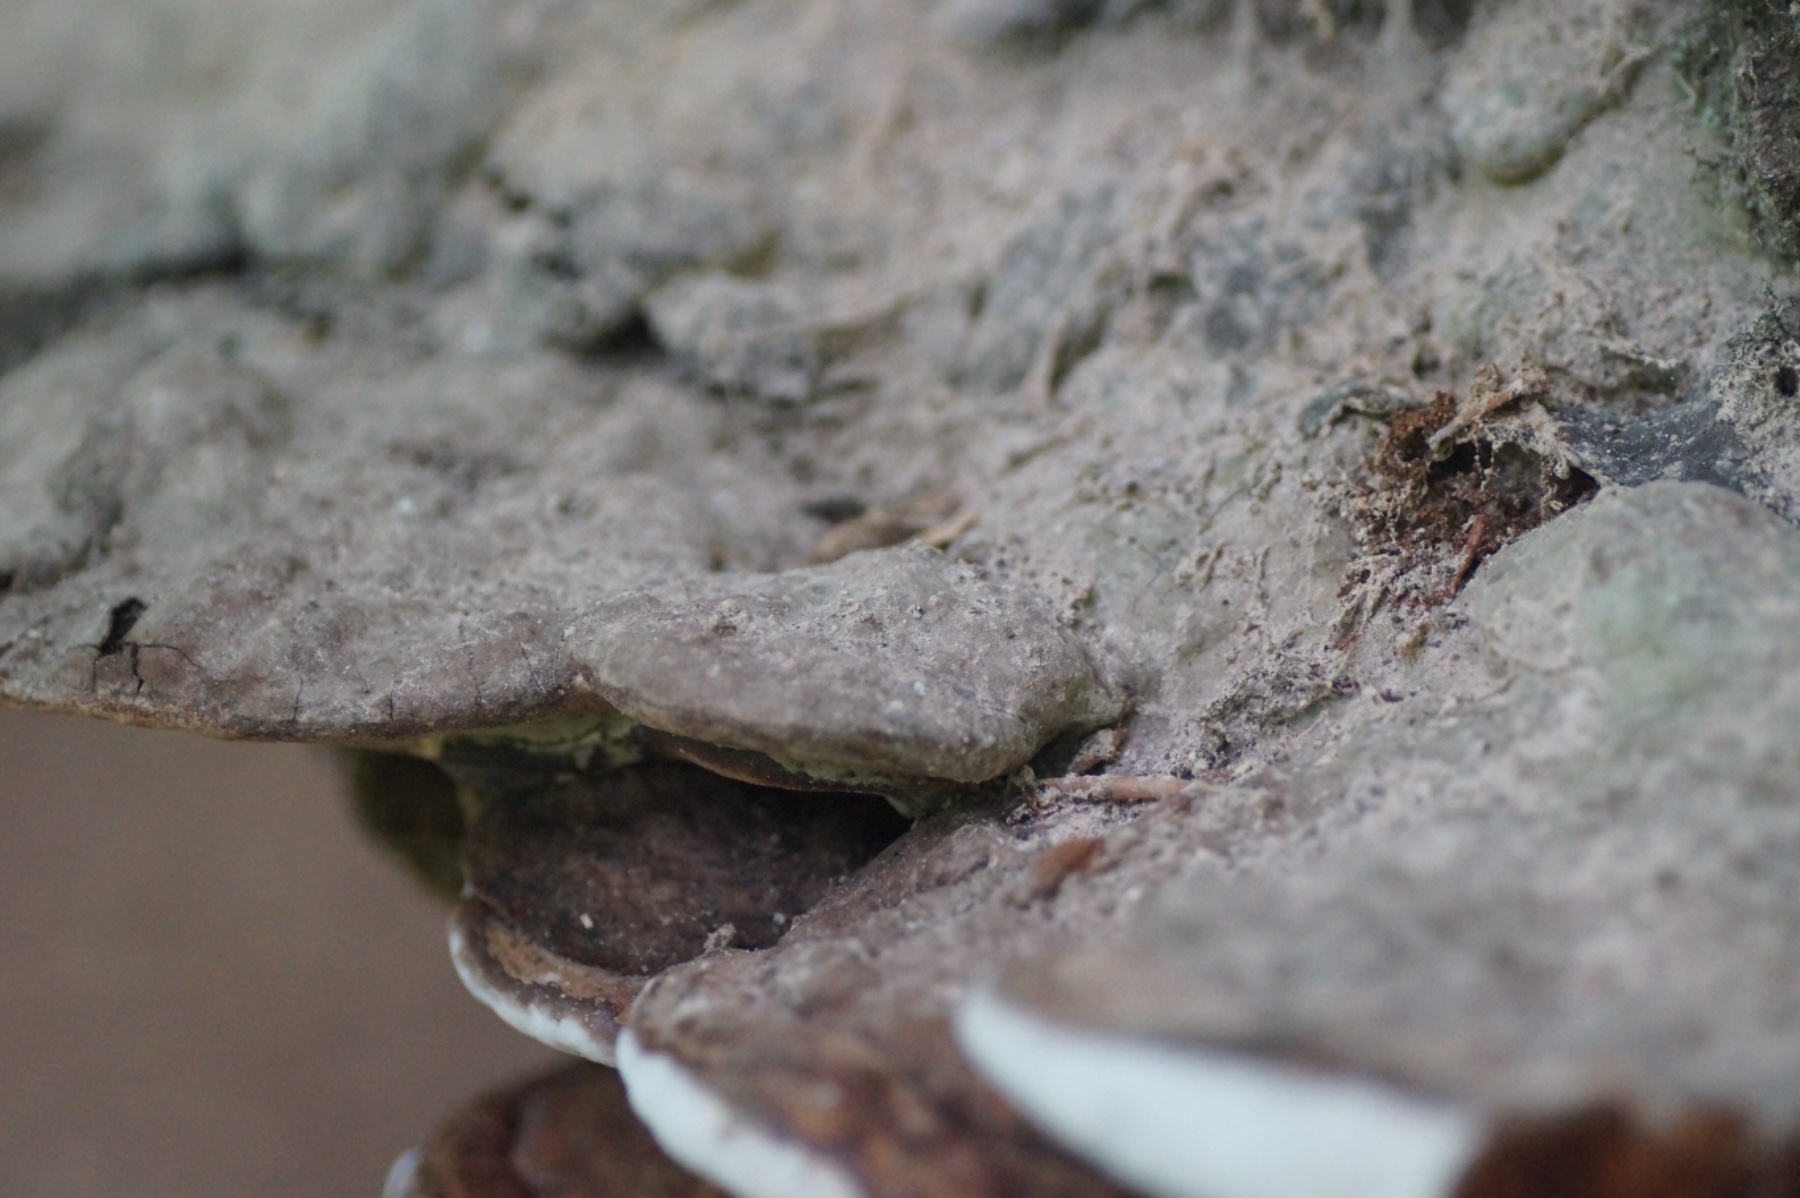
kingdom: Fungi
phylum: Basidiomycota
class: Agaricomycetes
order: Polyporales
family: Polyporaceae
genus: Ganoderma
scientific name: Ganoderma applanatum
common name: flad lakporesvamp
